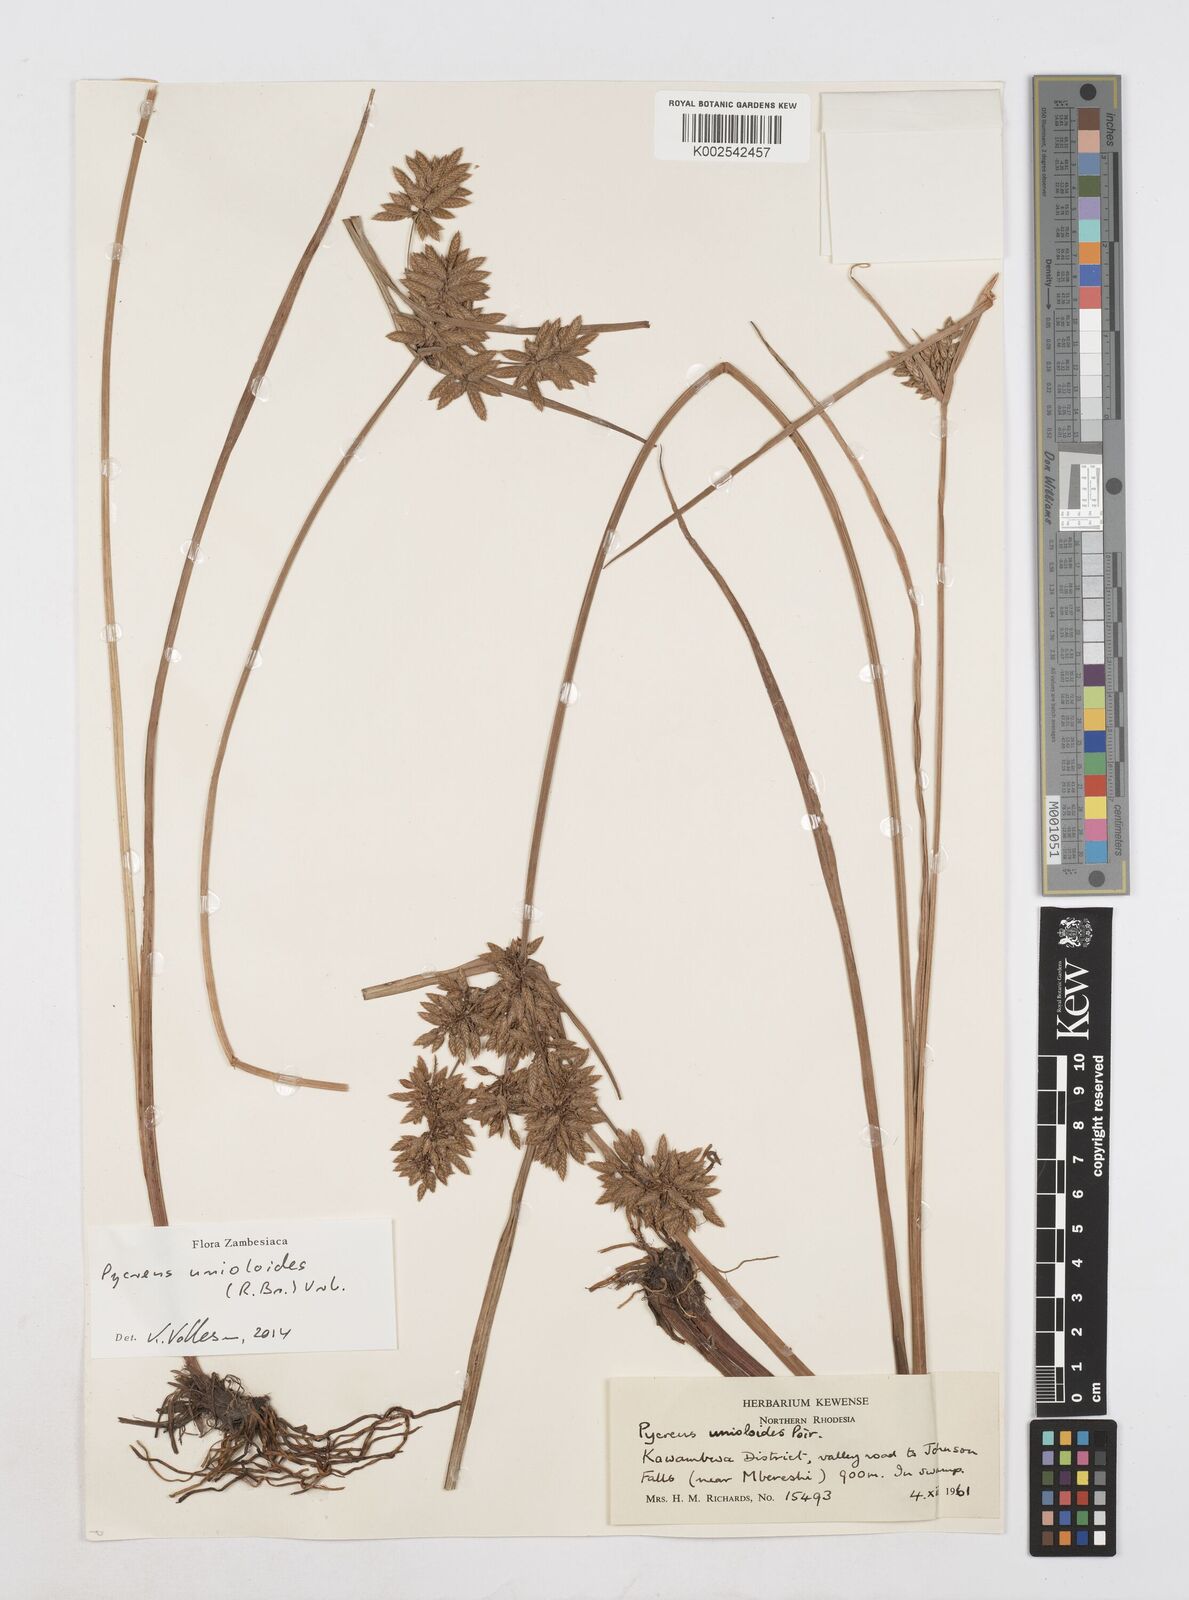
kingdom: Plantae
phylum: Tracheophyta
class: Liliopsida
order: Poales
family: Cyperaceae
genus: Cyperus
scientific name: Cyperus unioloides
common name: Uniola flatsedge
